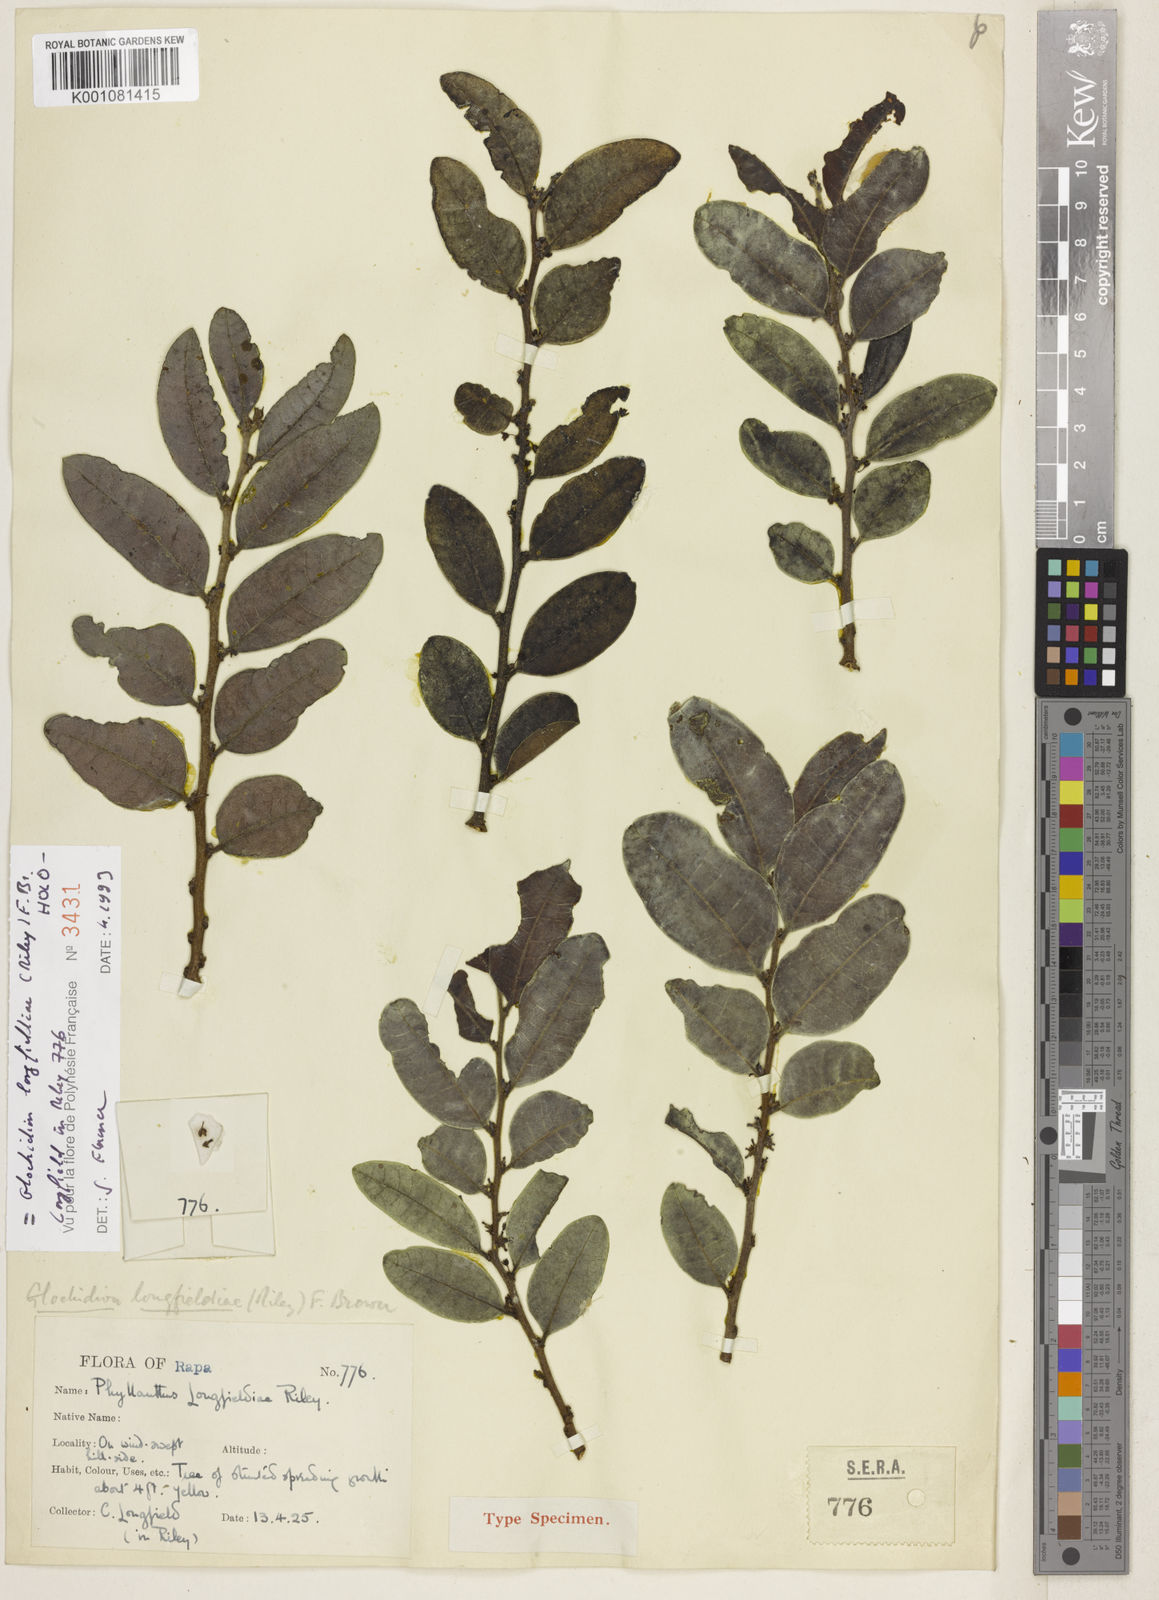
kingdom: Plantae
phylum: Tracheophyta
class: Magnoliopsida
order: Malpighiales
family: Phyllanthaceae
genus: Glochidion
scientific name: Glochidion longfieldiae
